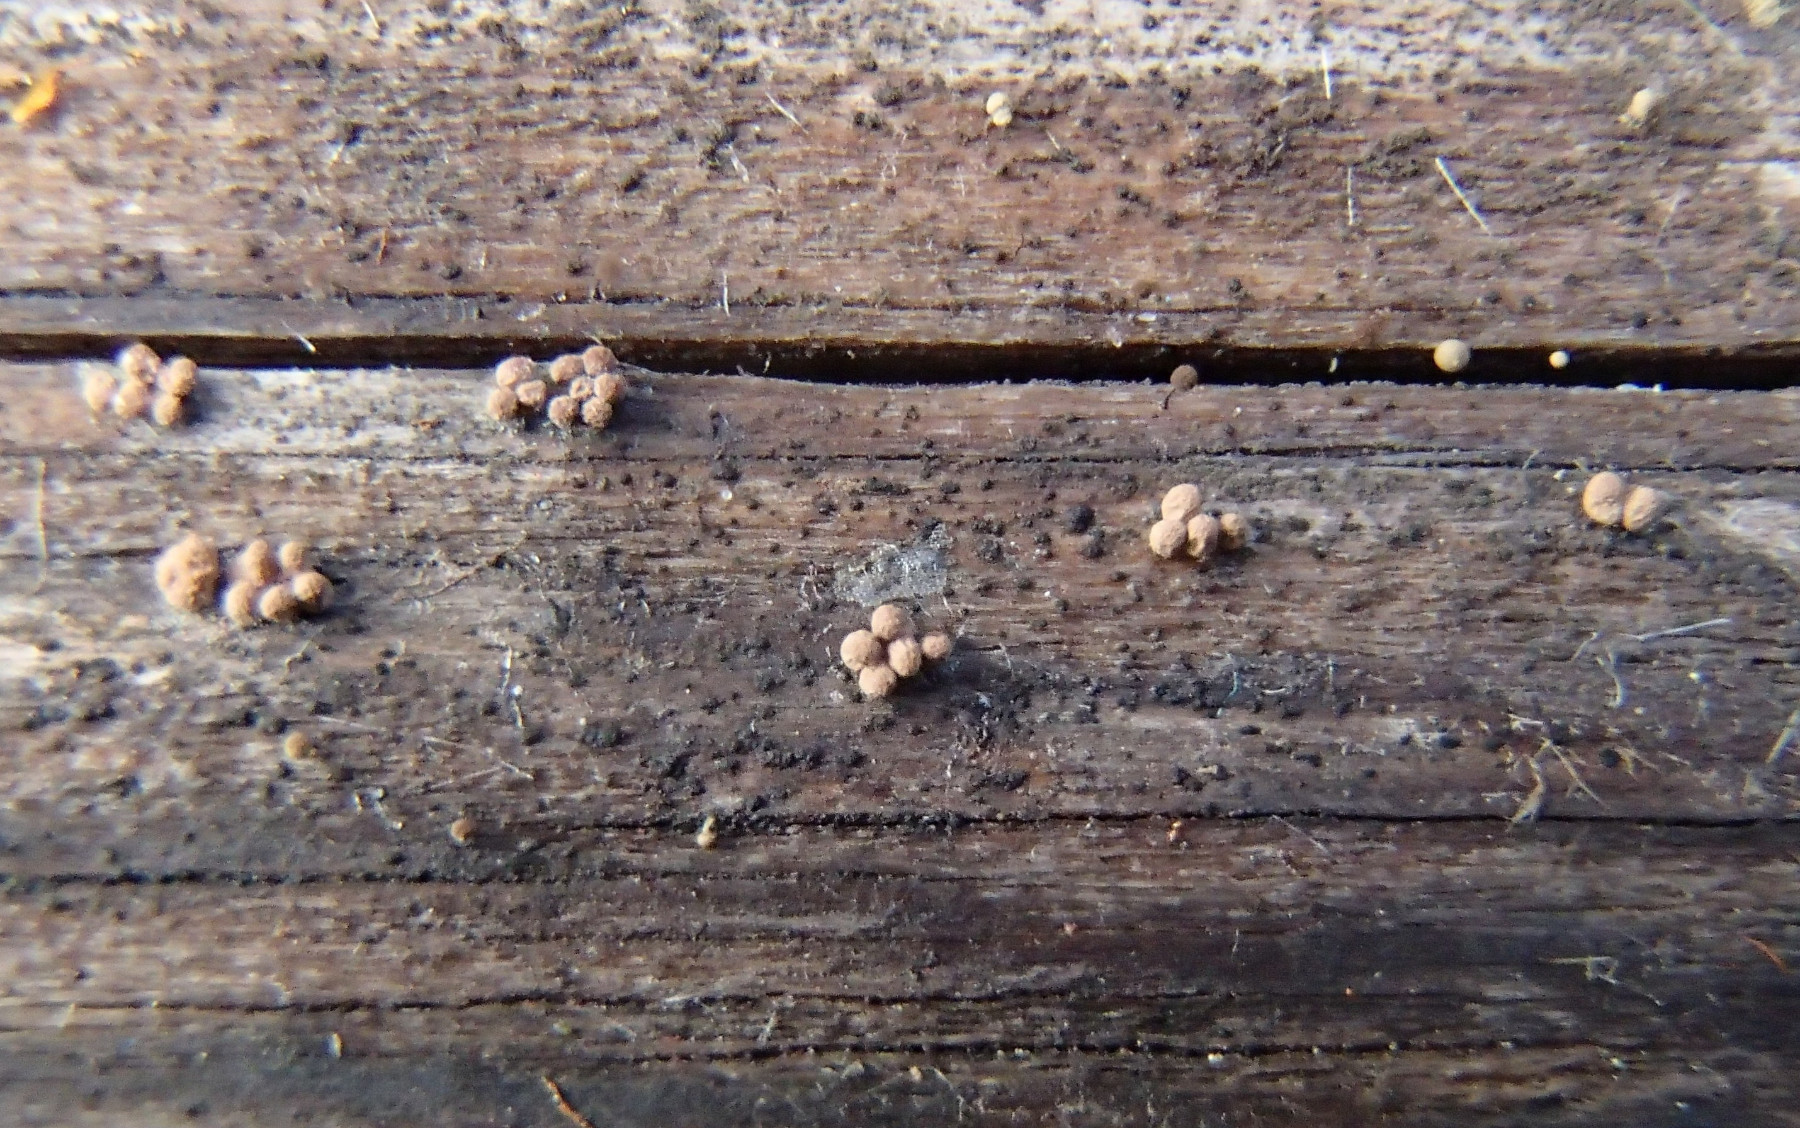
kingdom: Protozoa
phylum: Amoebozoa
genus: Arcyria
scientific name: Arcyria
